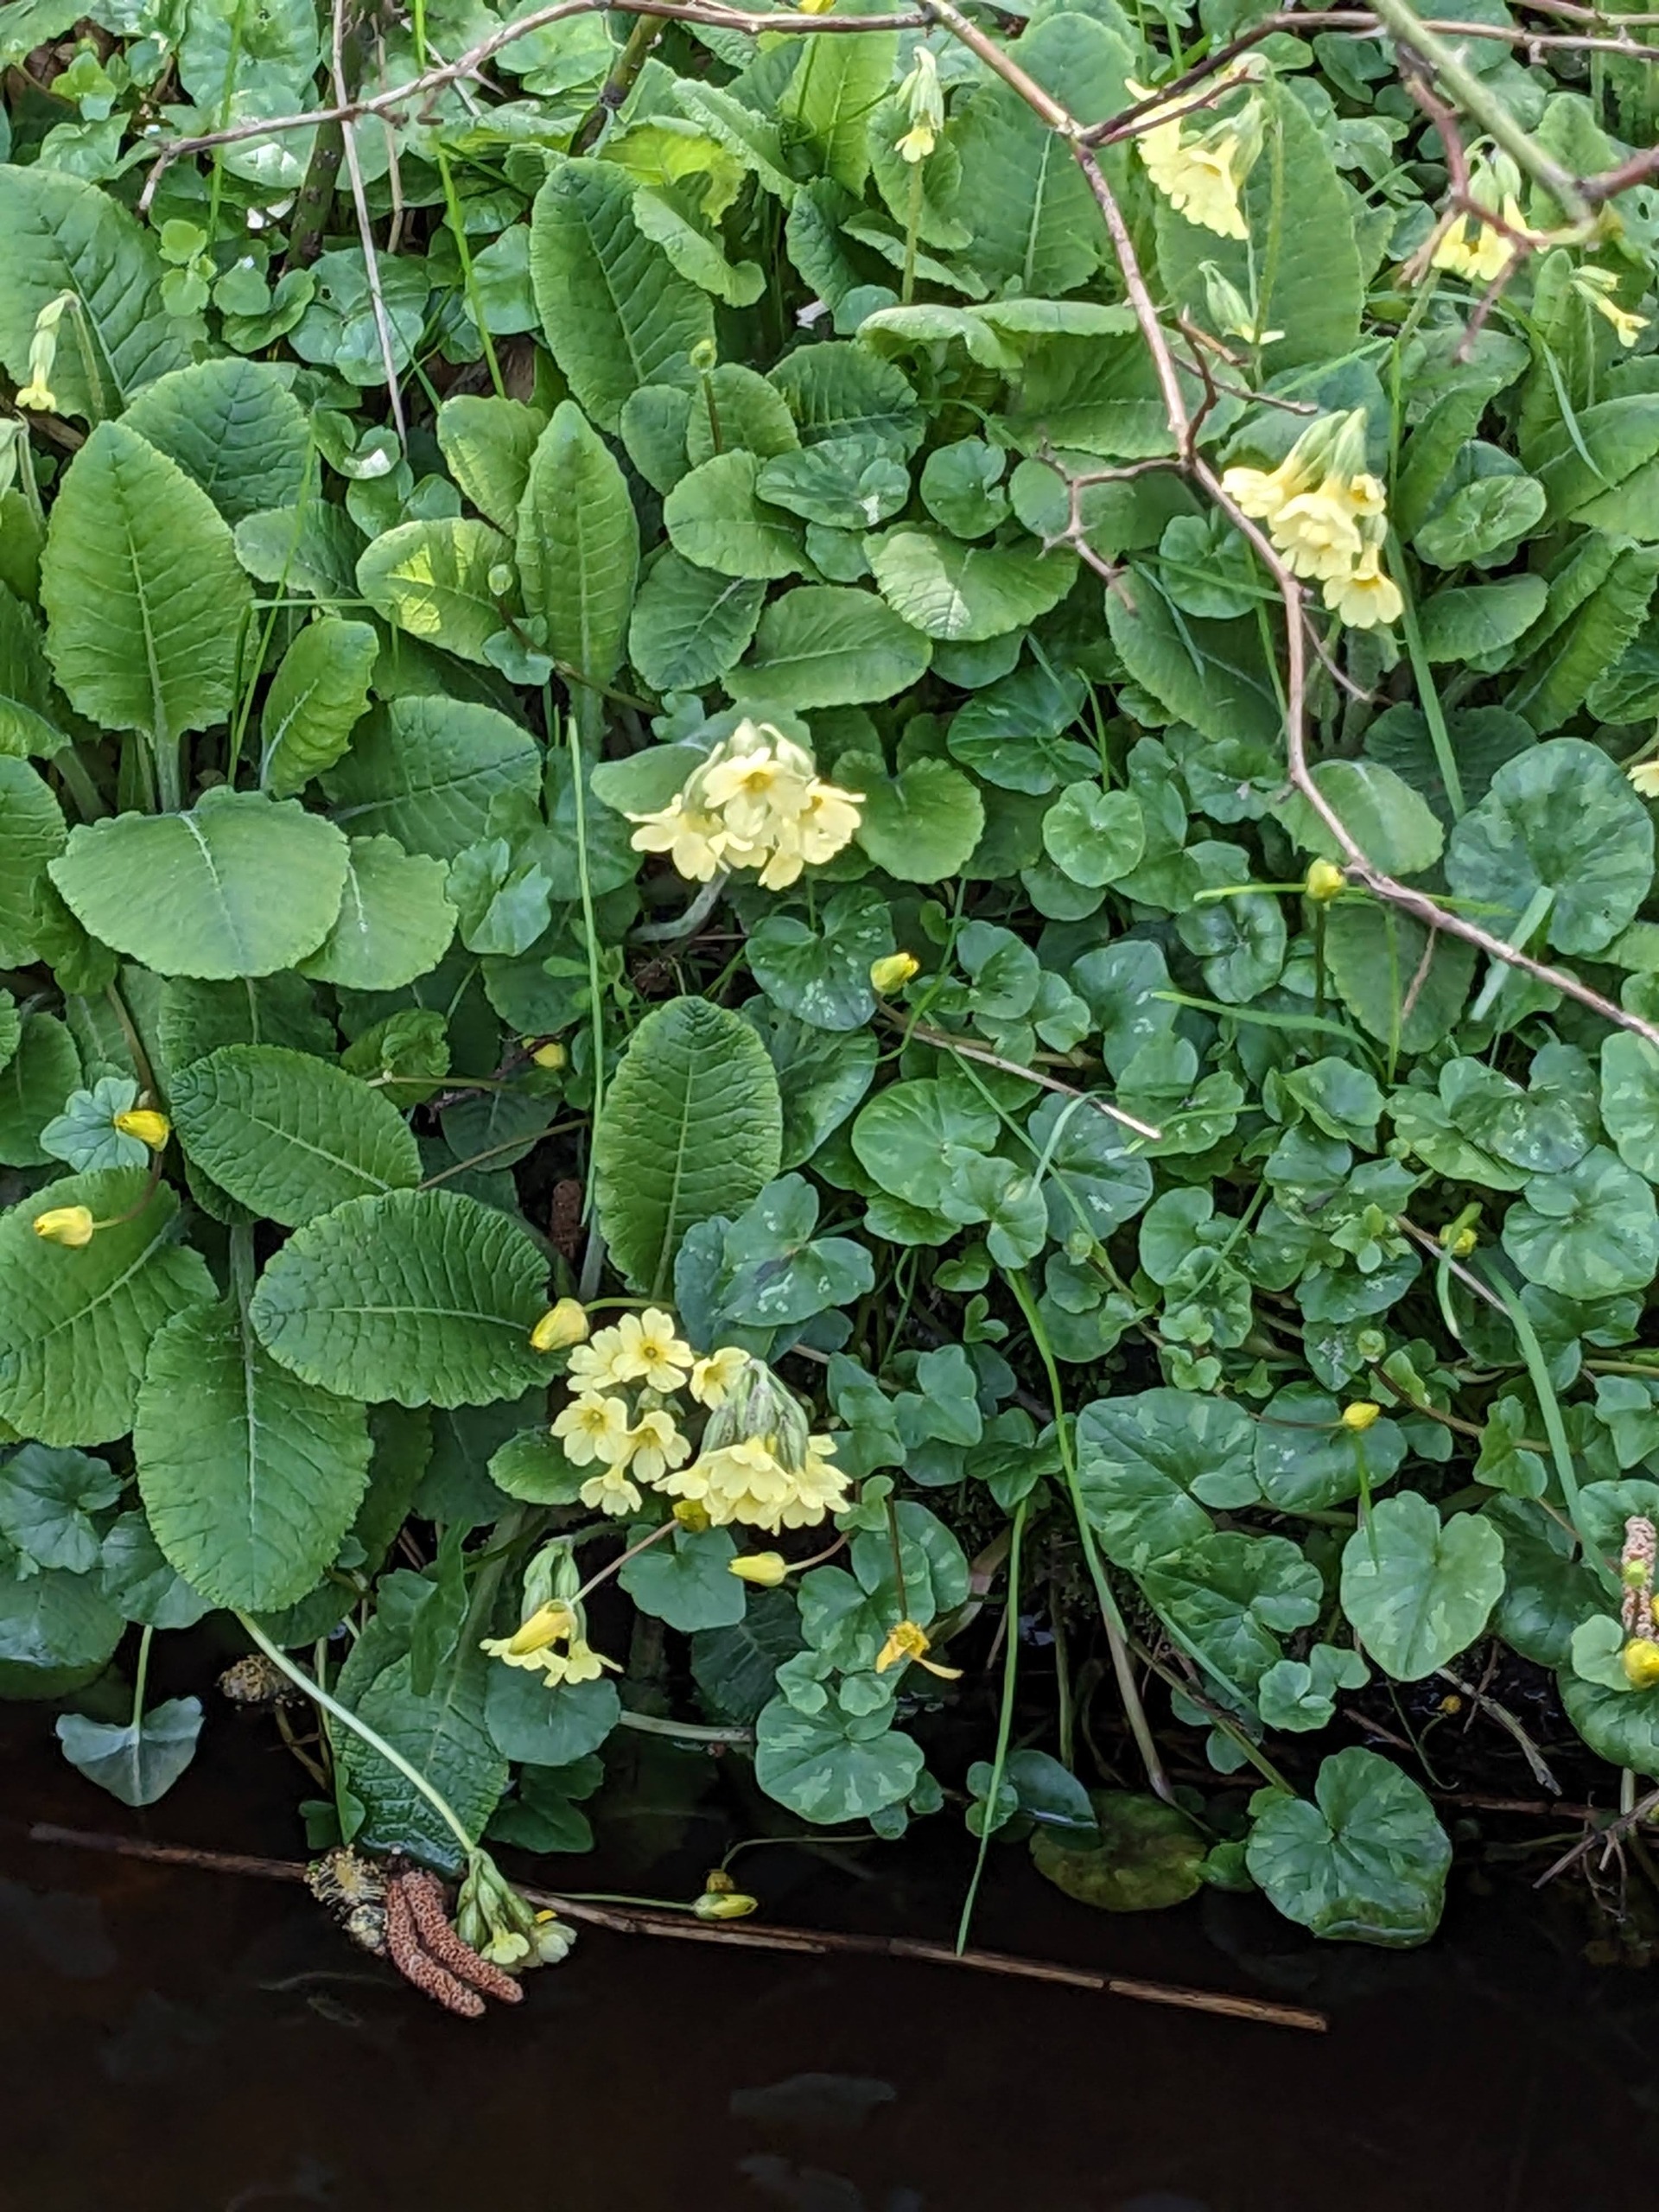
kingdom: Plantae
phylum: Tracheophyta
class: Magnoliopsida
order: Ericales
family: Primulaceae
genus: Primula
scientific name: Primula elatior
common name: Fladkravet kodriver
